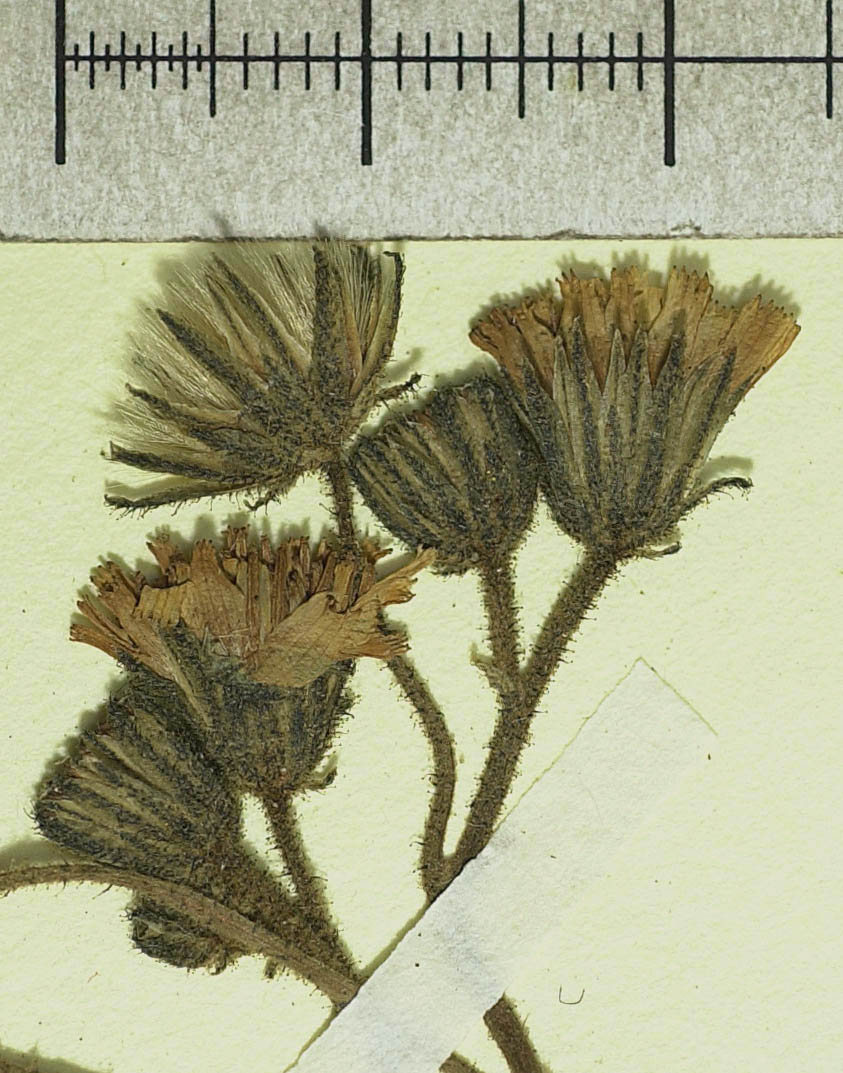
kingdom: Plantae
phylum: Tracheophyta
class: Magnoliopsida
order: Asterales
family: Asteraceae
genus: Pilosella
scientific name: Pilosella chomatophila
